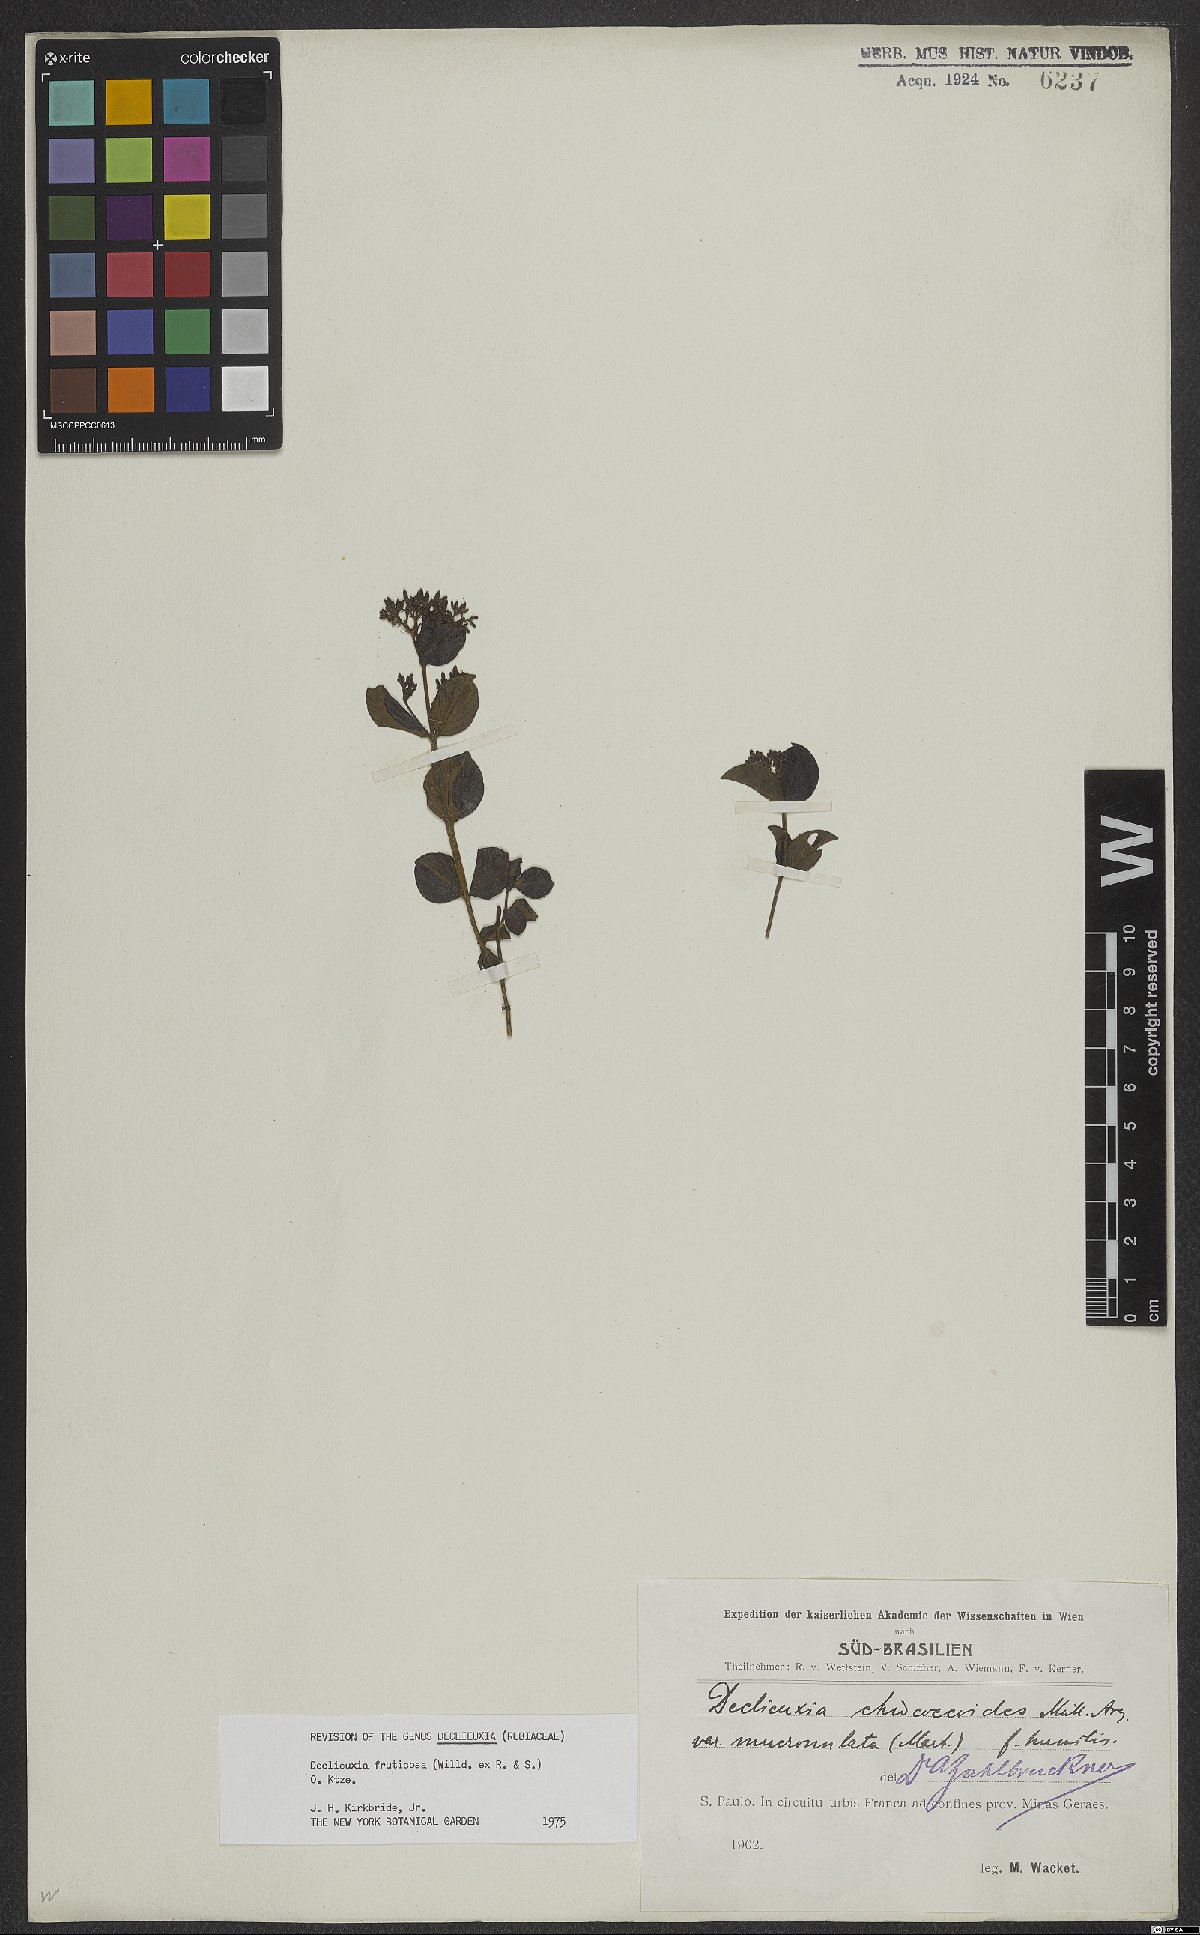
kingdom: Plantae
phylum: Tracheophyta
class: Magnoliopsida
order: Gentianales
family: Rubiaceae
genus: Declieuxia
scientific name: Declieuxia fruticosa
